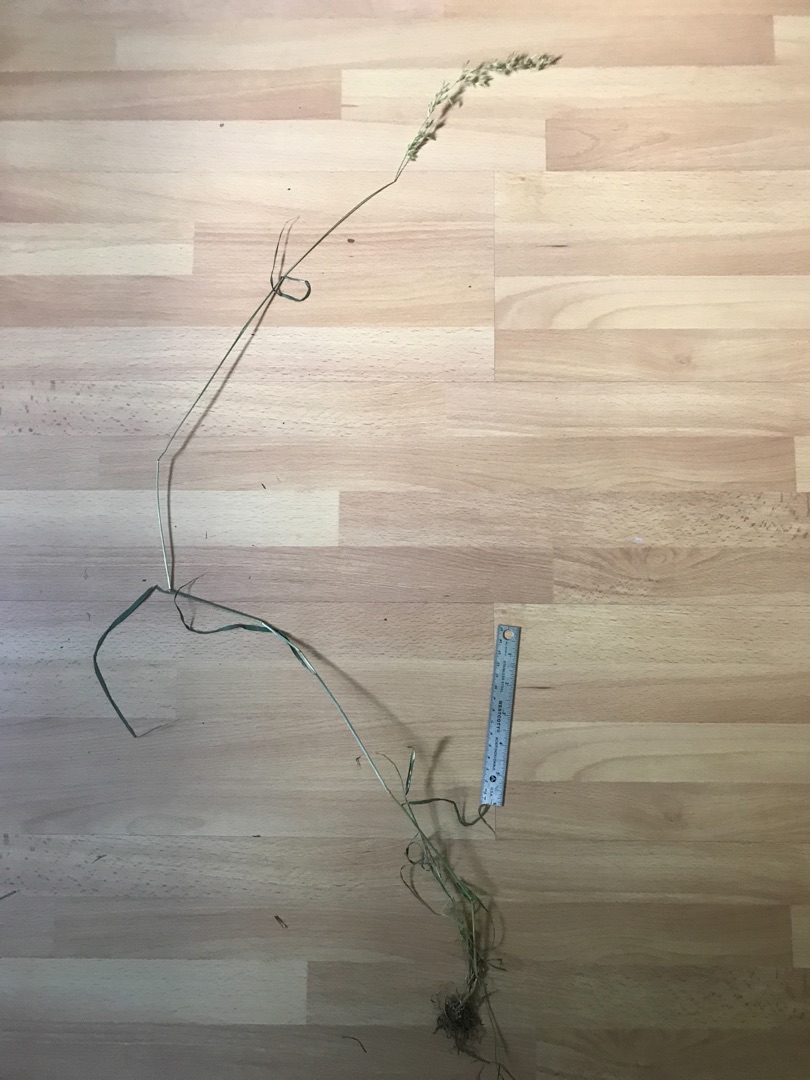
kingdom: Plantae
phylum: Tracheophyta
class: Liliopsida
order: Poales
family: Poaceae
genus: Arrhenatherum
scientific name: Arrhenatherum elatius
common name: Draphavre
